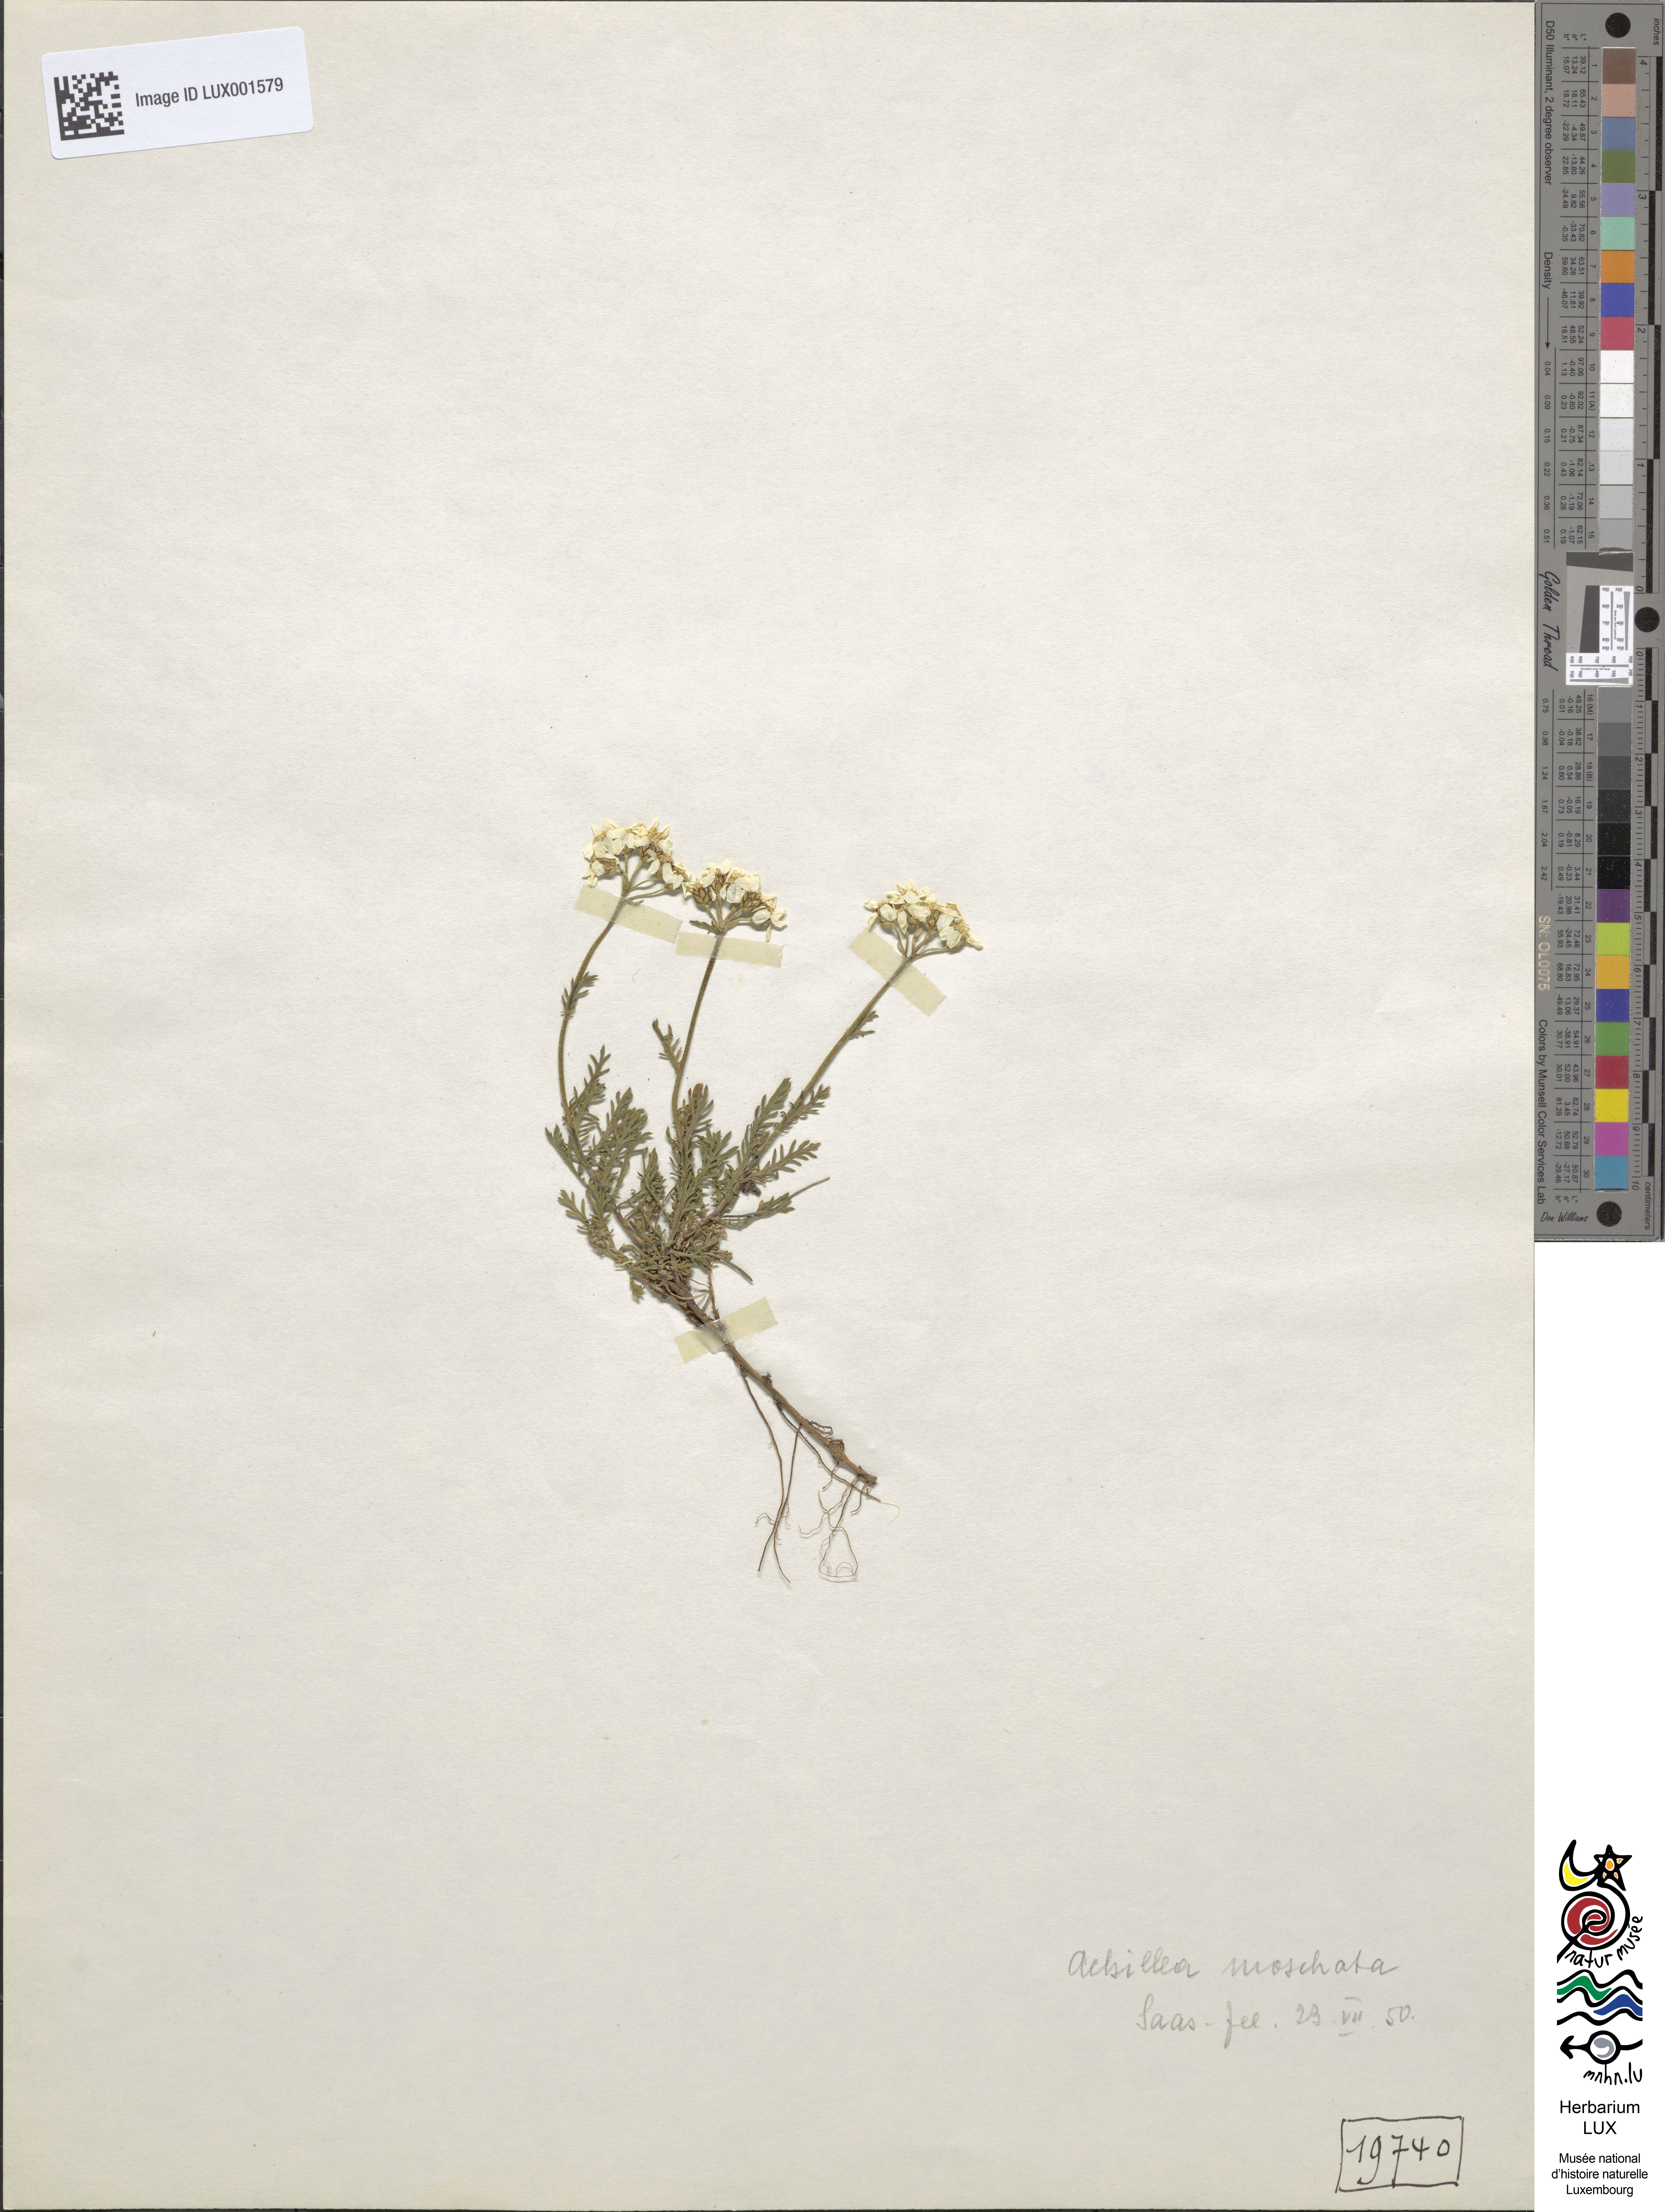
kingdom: Plantae
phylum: Tracheophyta
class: Magnoliopsida
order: Asterales
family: Asteraceae
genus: Achillea
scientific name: Achillea erba-rotta
